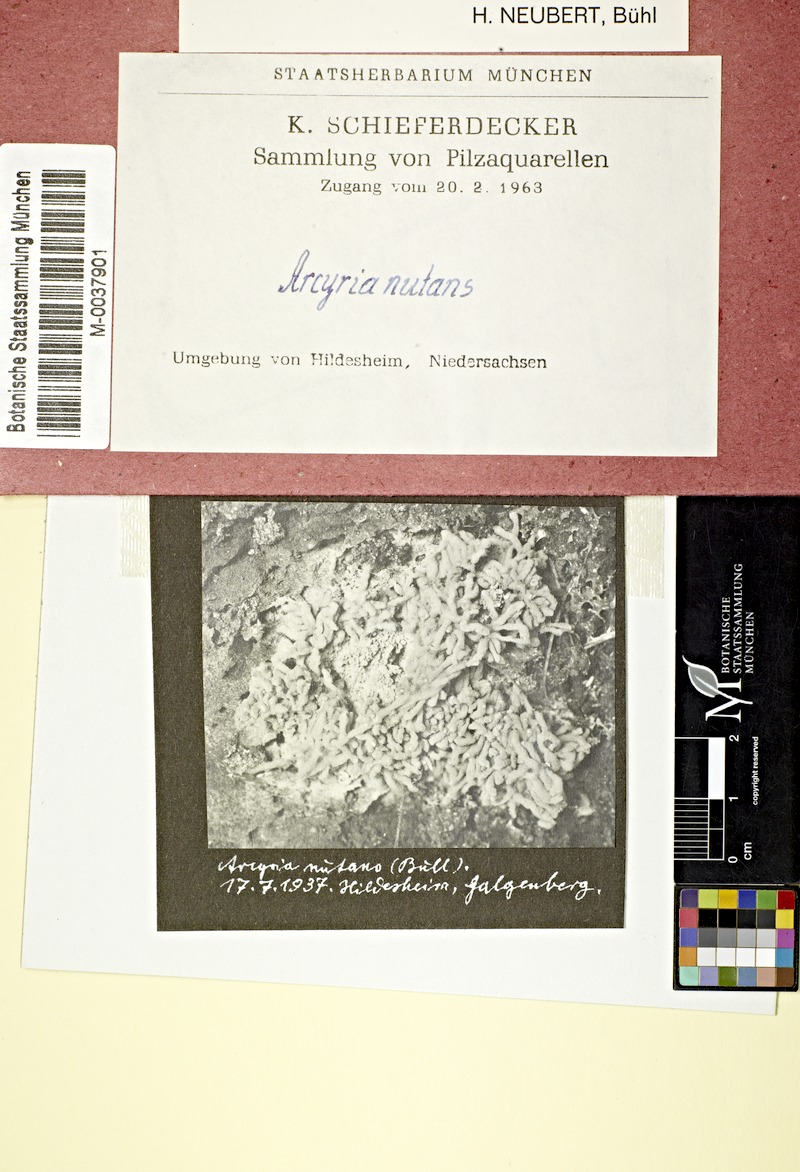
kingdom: Protozoa
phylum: Mycetozoa
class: Myxomycetes
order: Trichiales
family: Arcyriaceae
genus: Arcyria
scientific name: Arcyria obvelata
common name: Yellow carnival candy slime
